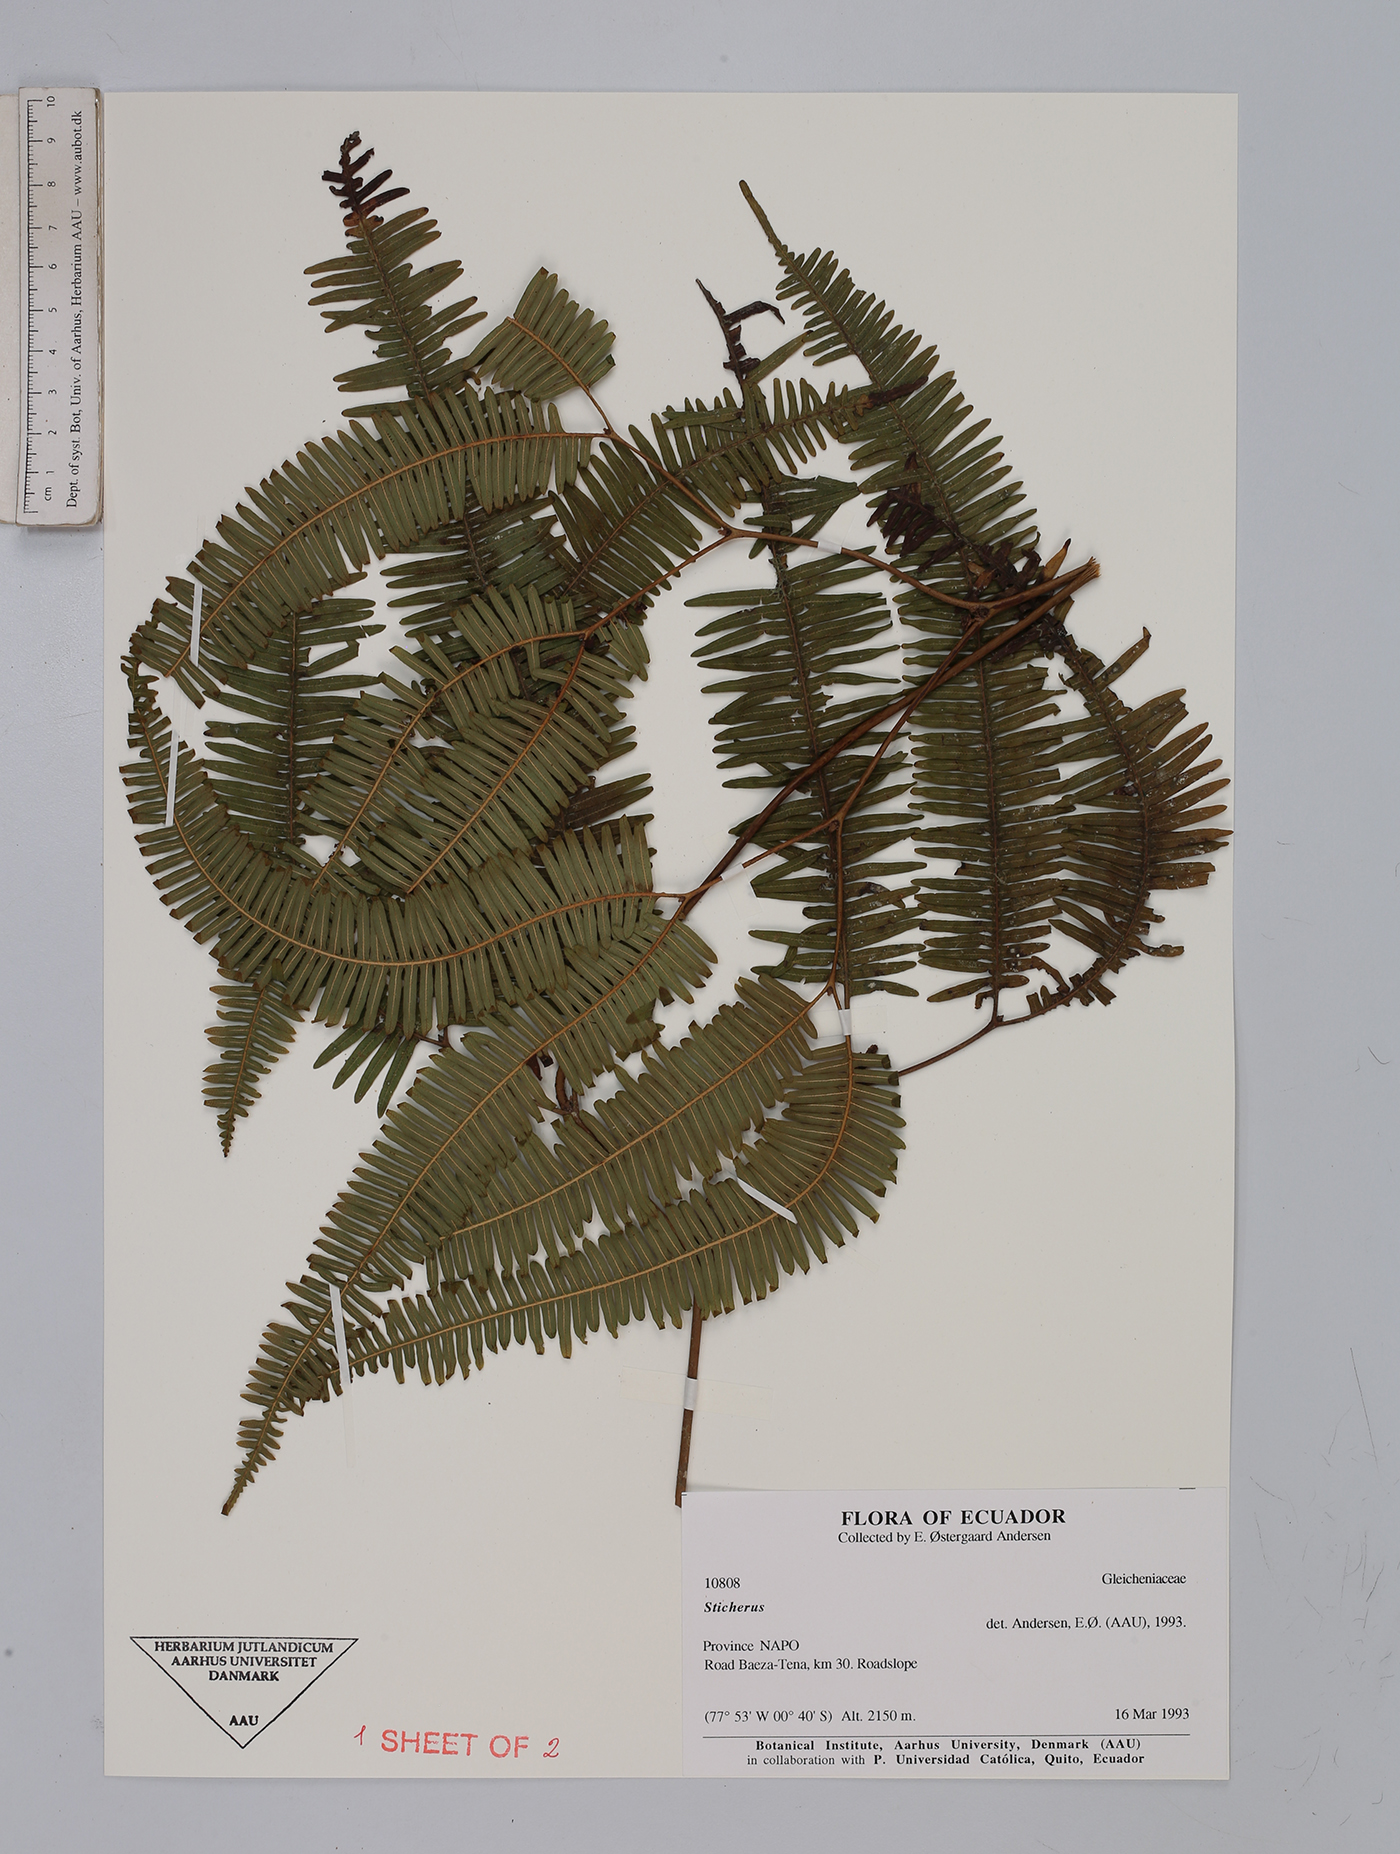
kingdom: Plantae
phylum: Tracheophyta
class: Polypodiopsida
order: Gleicheniales
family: Gleicheniaceae
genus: Sticherus
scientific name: Sticherus
